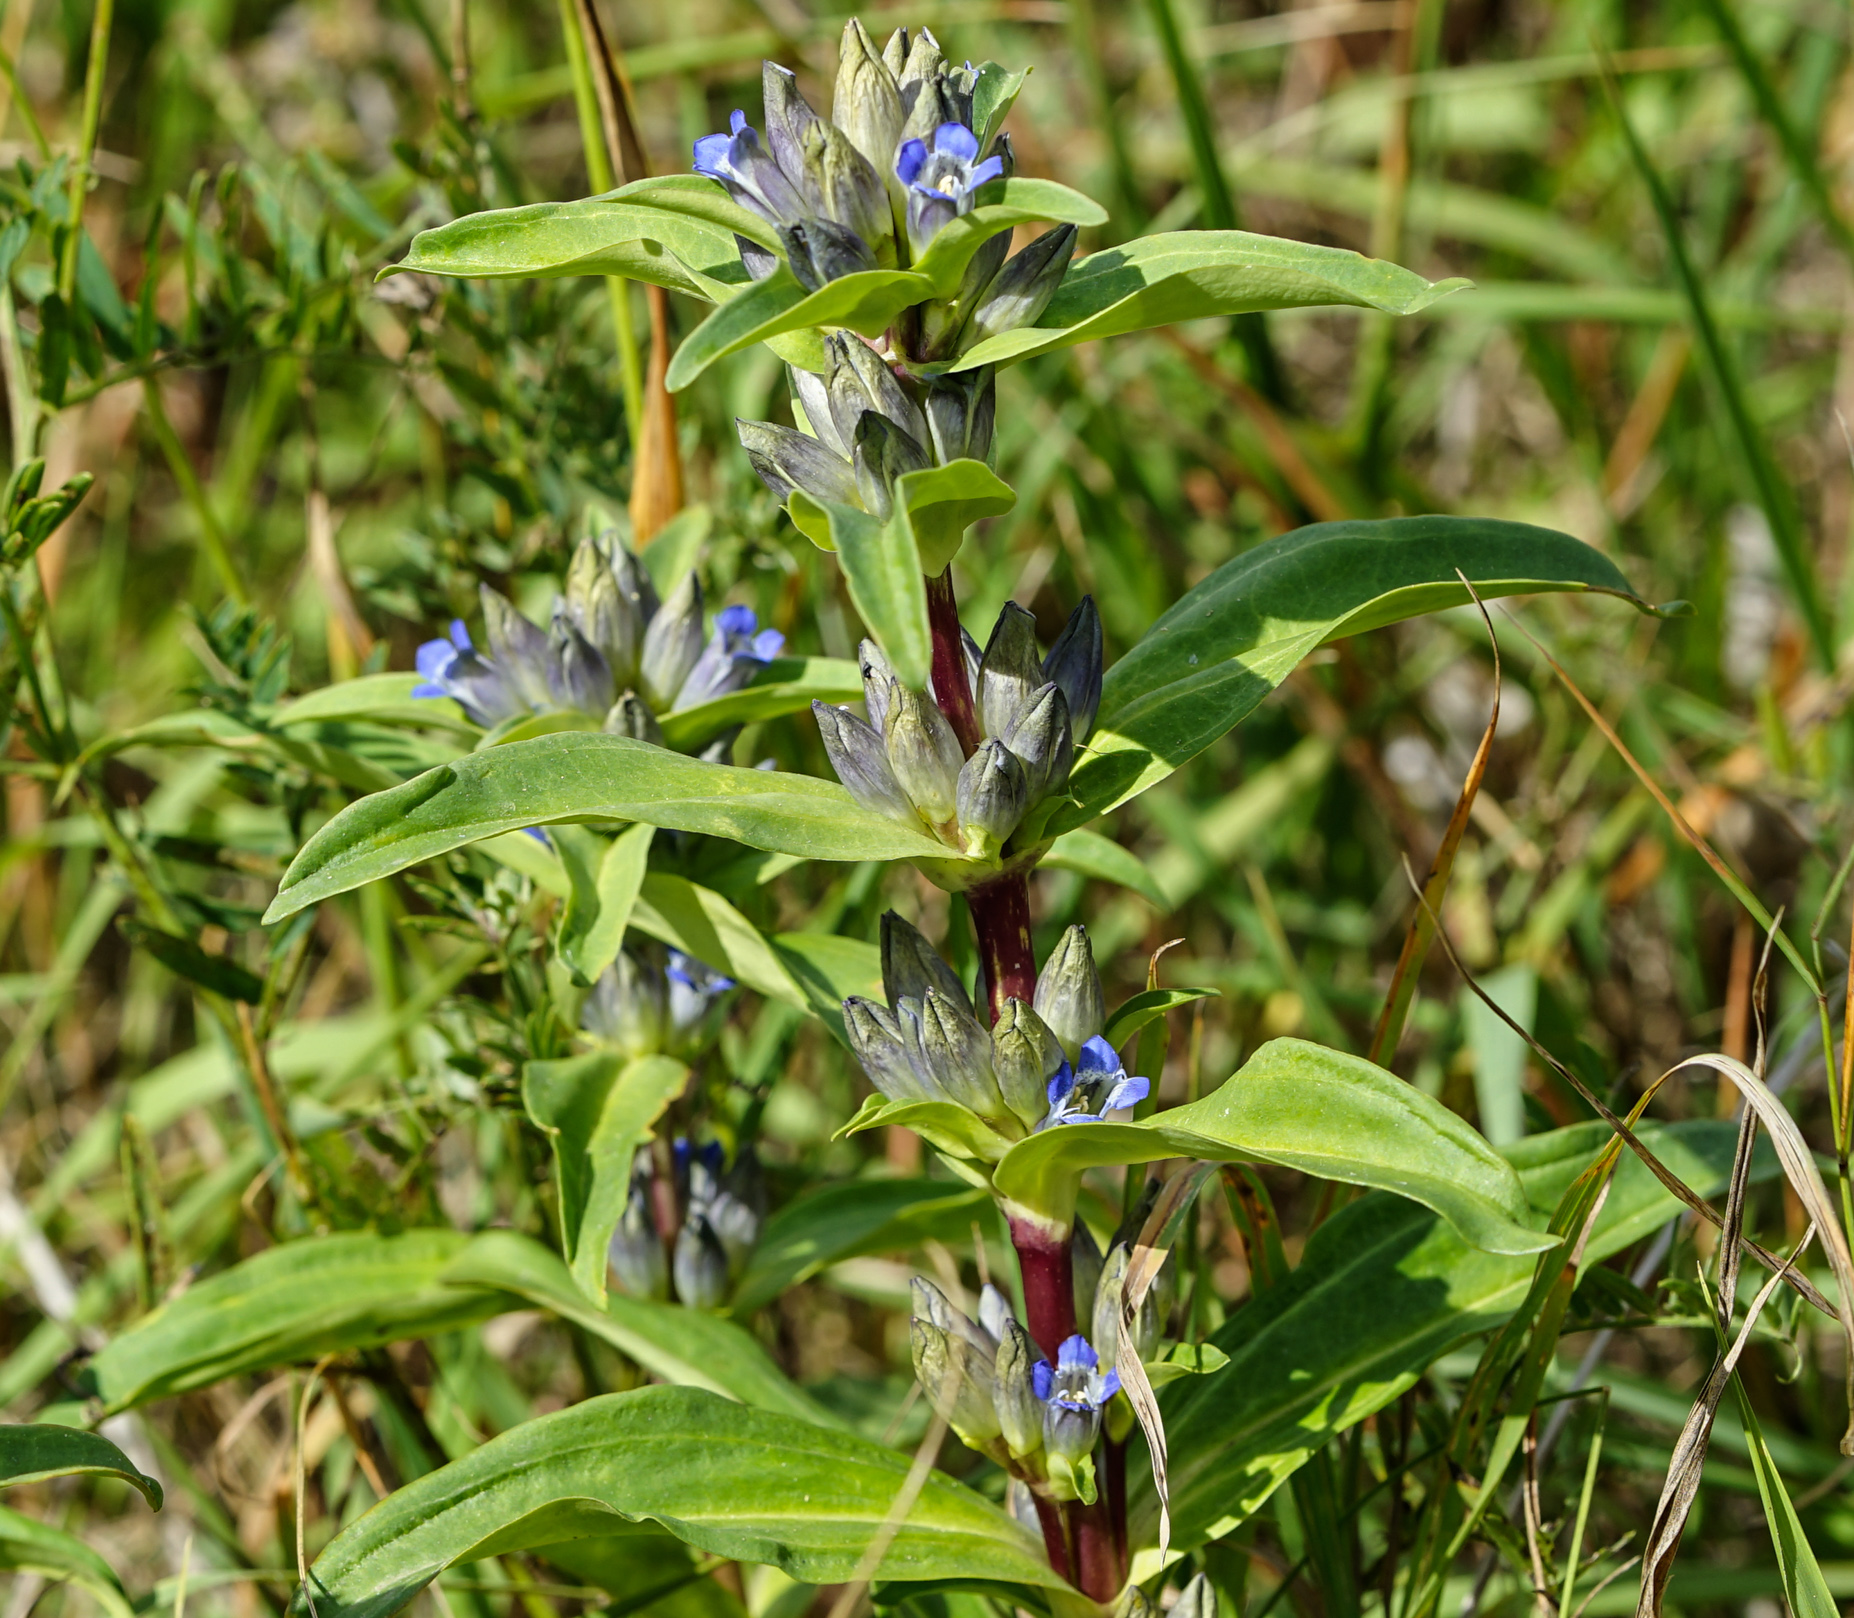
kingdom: Plantae
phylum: Tracheophyta
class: Magnoliopsida
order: Gentianales
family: Gentianaceae
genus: Gentiana
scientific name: Gentiana cruciata
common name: Cross gentian
